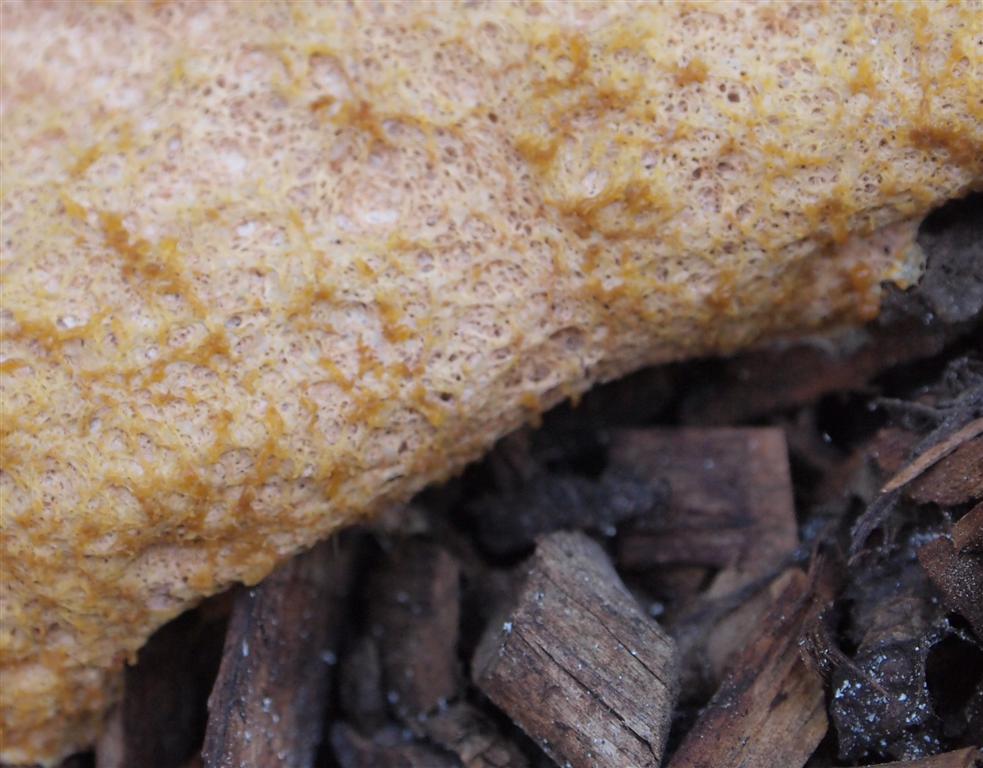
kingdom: Protozoa
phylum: Mycetozoa
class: Myxomycetes
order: Physarales
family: Physaraceae
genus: Fuligo
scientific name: Fuligo septica
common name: Dog vomit slime mold
